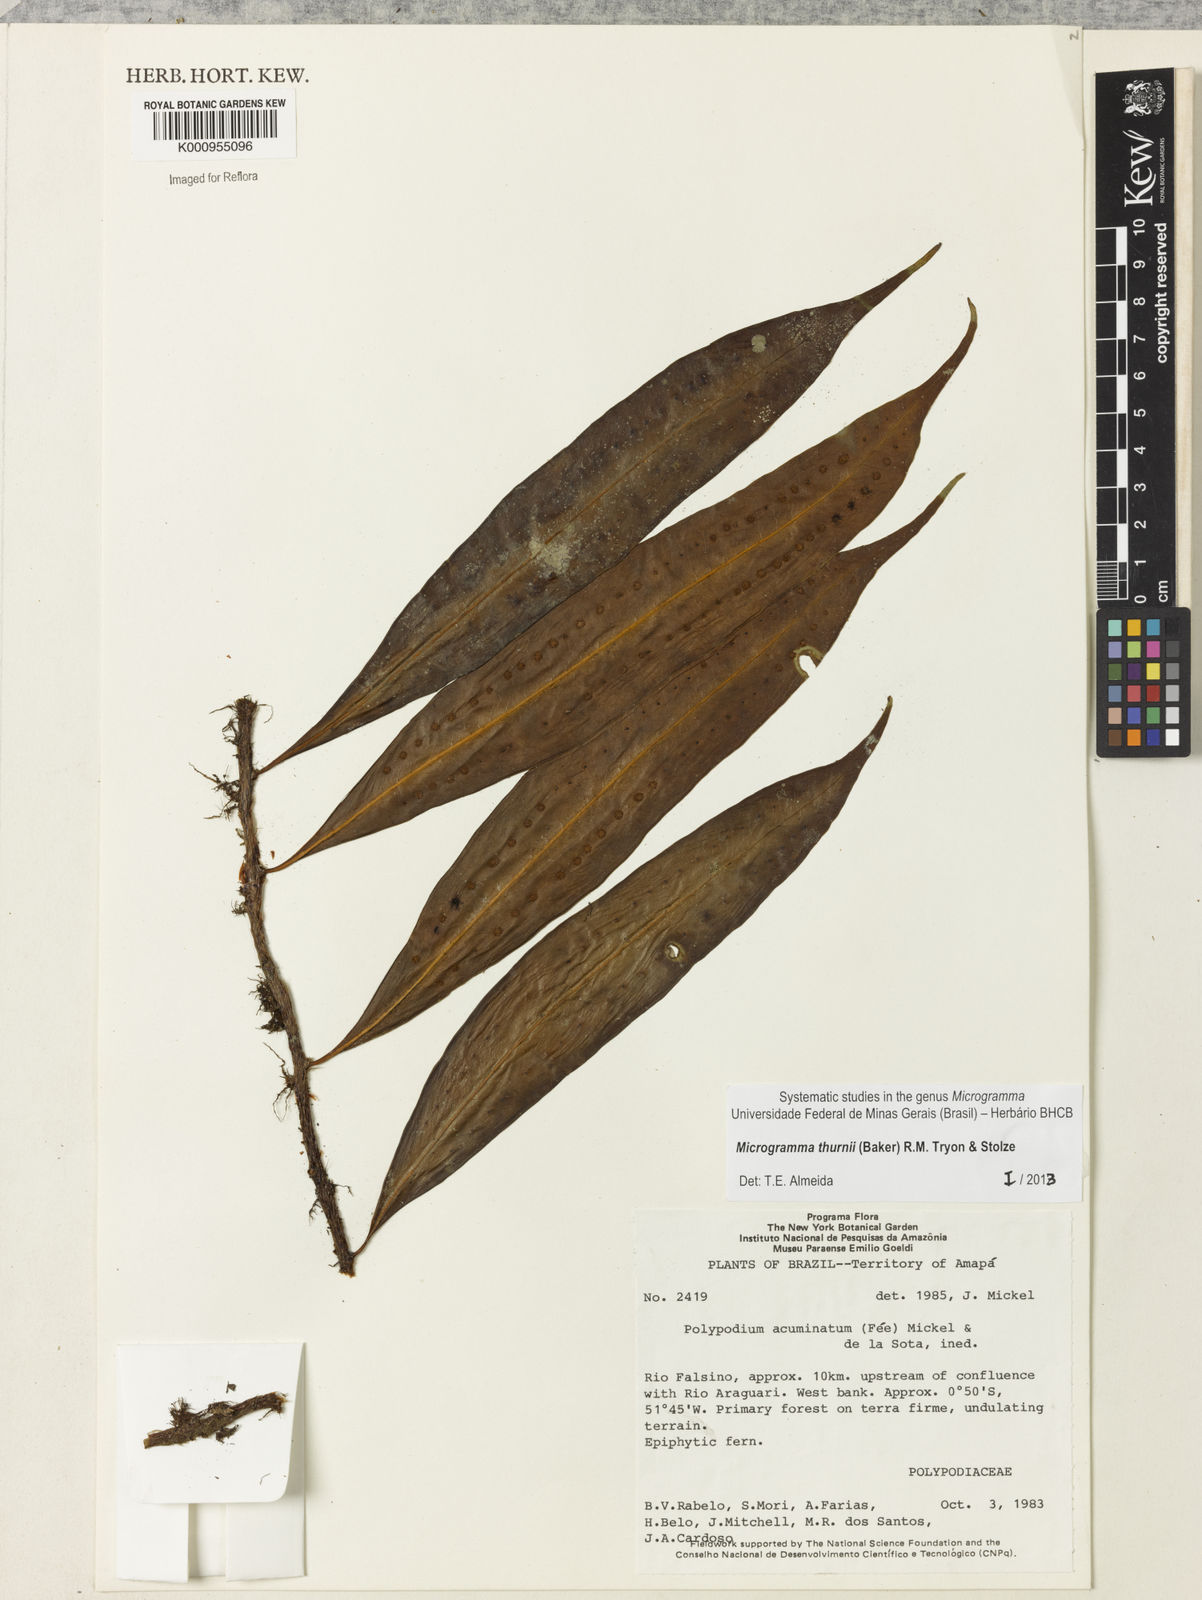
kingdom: Plantae
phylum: Tracheophyta
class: Polypodiopsida
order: Polypodiales
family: Polypodiaceae
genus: Microgramma
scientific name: Microgramma thurnii
